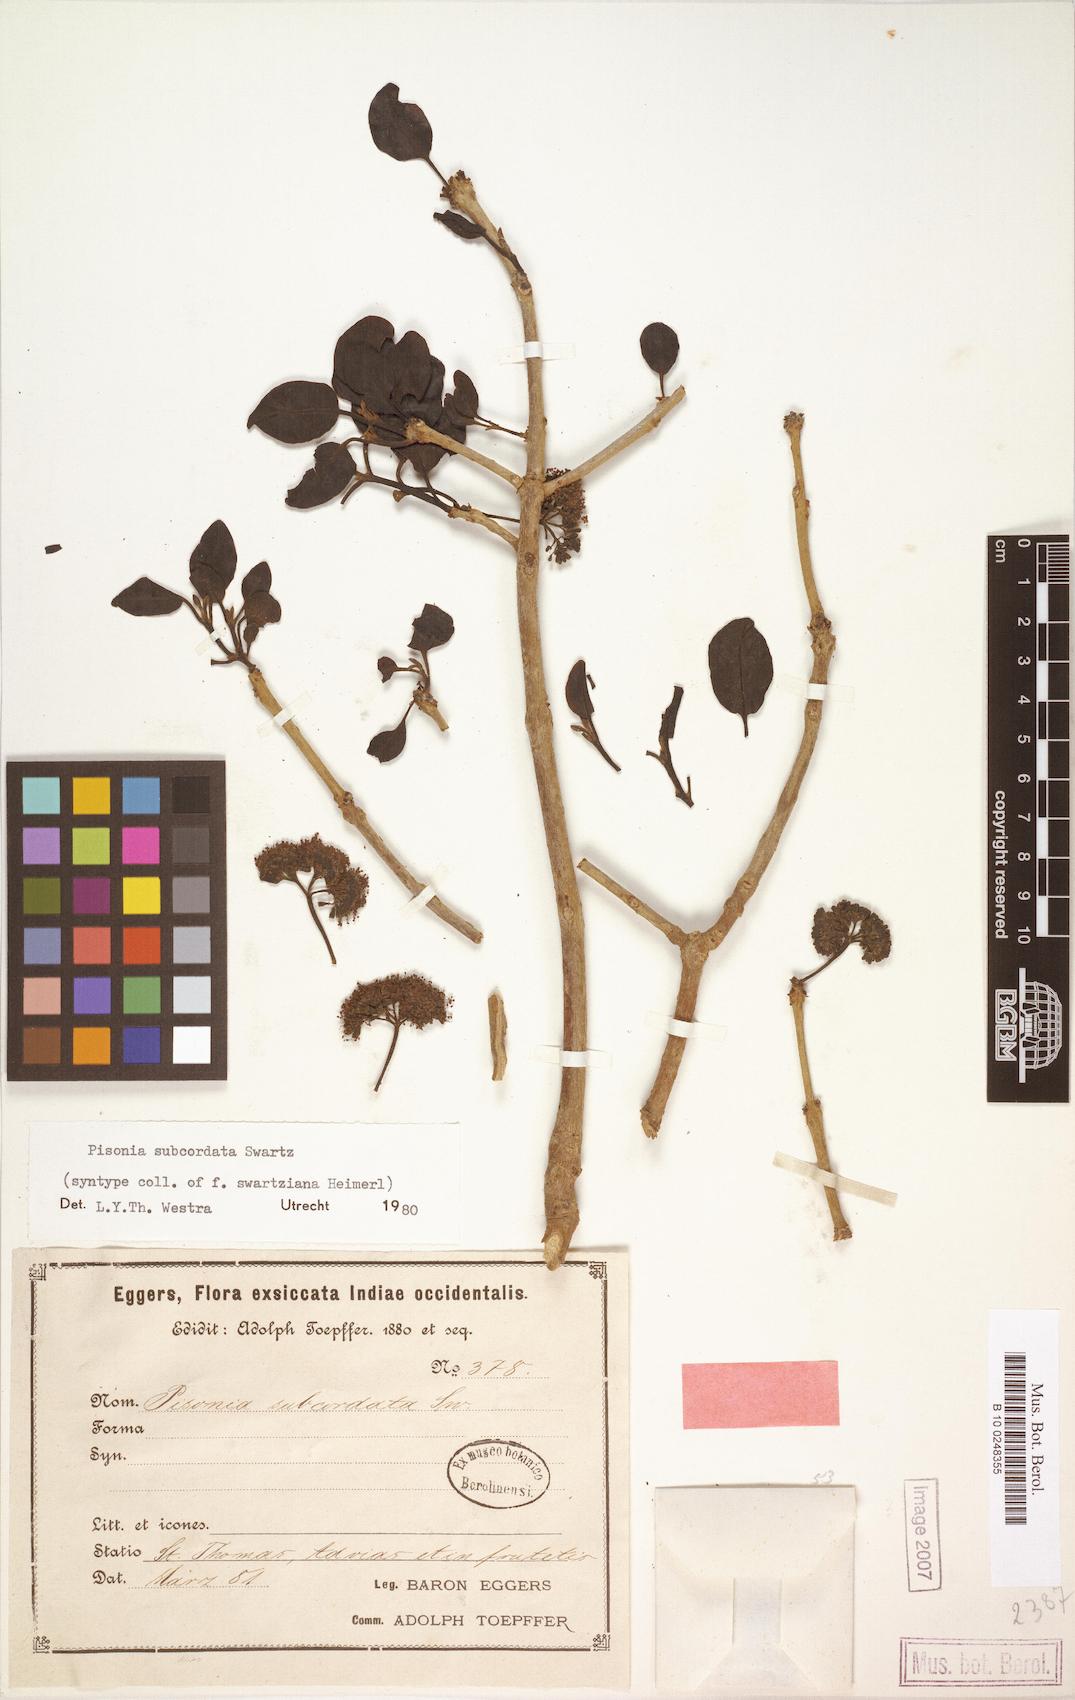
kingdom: Plantae
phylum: Tracheophyta
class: Magnoliopsida
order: Caryophyllales
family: Nyctaginaceae
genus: Pisonia
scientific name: Pisonia subcordata
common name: Mampoo
